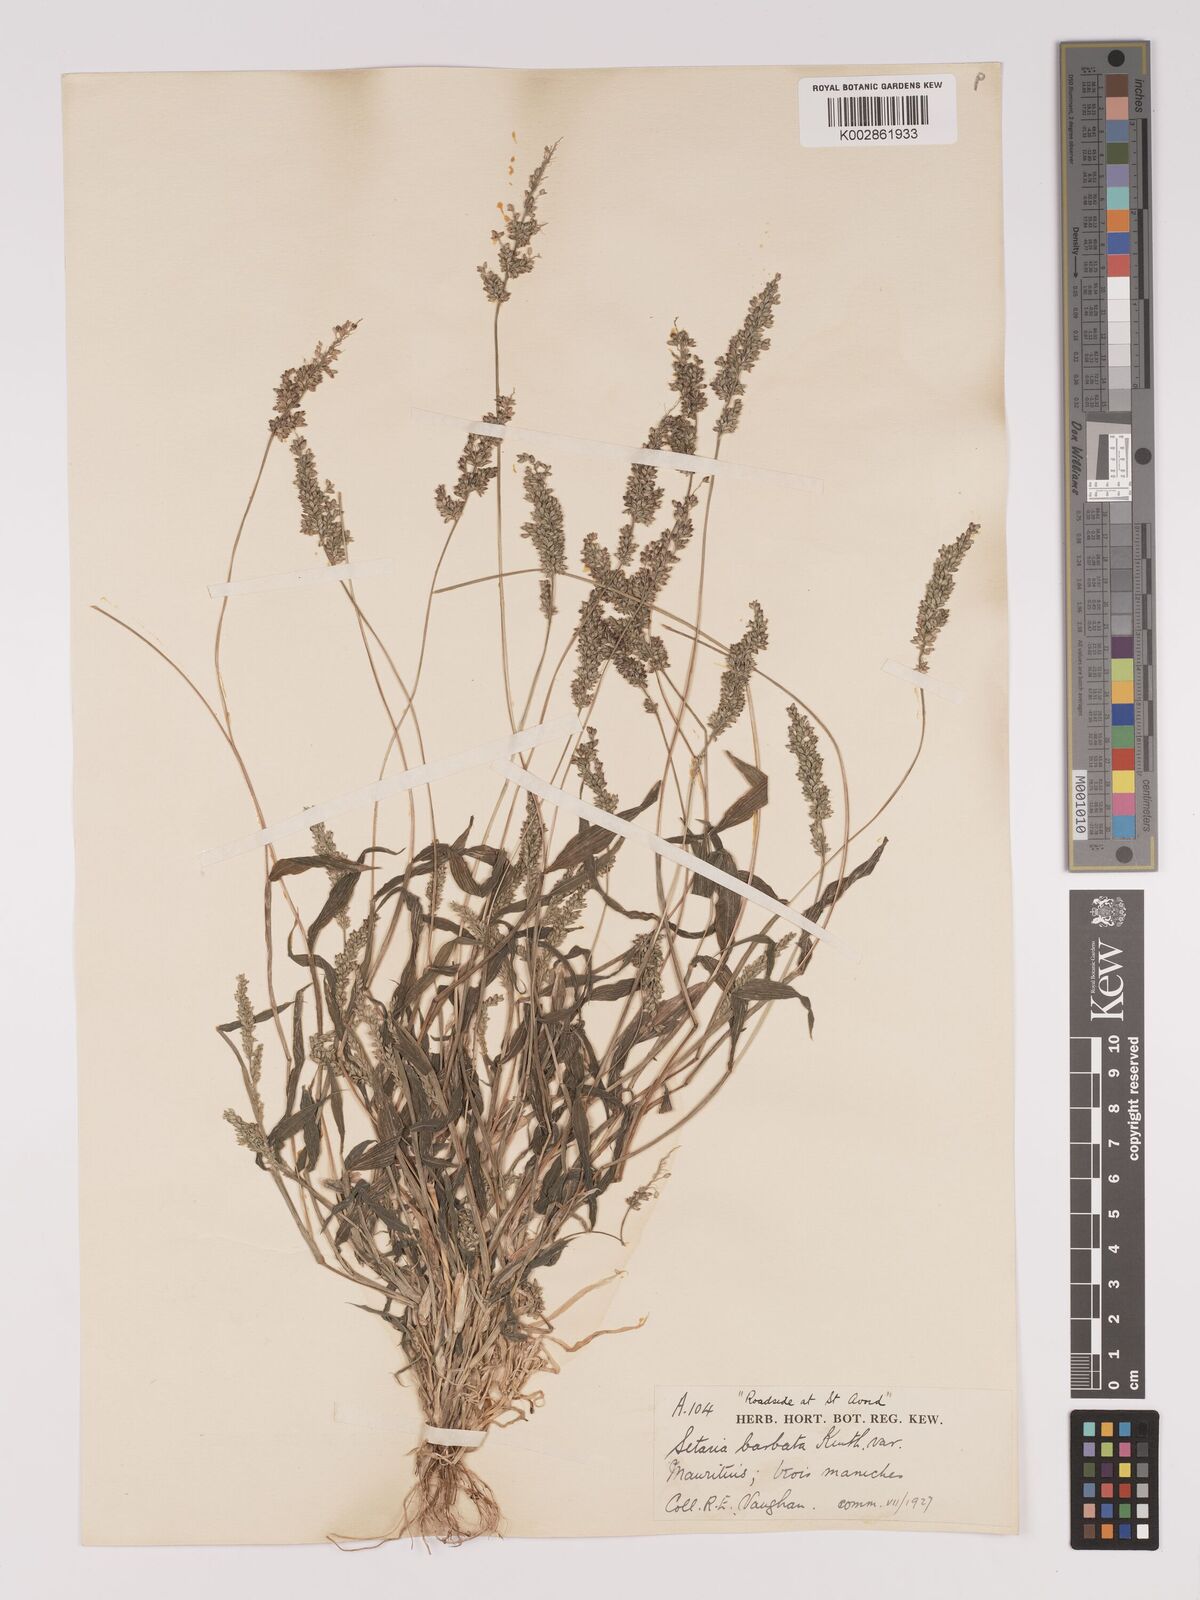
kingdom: Plantae
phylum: Tracheophyta
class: Liliopsida
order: Poales
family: Poaceae
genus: Setaria
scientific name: Setaria barbata
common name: East indian bristlegrass
